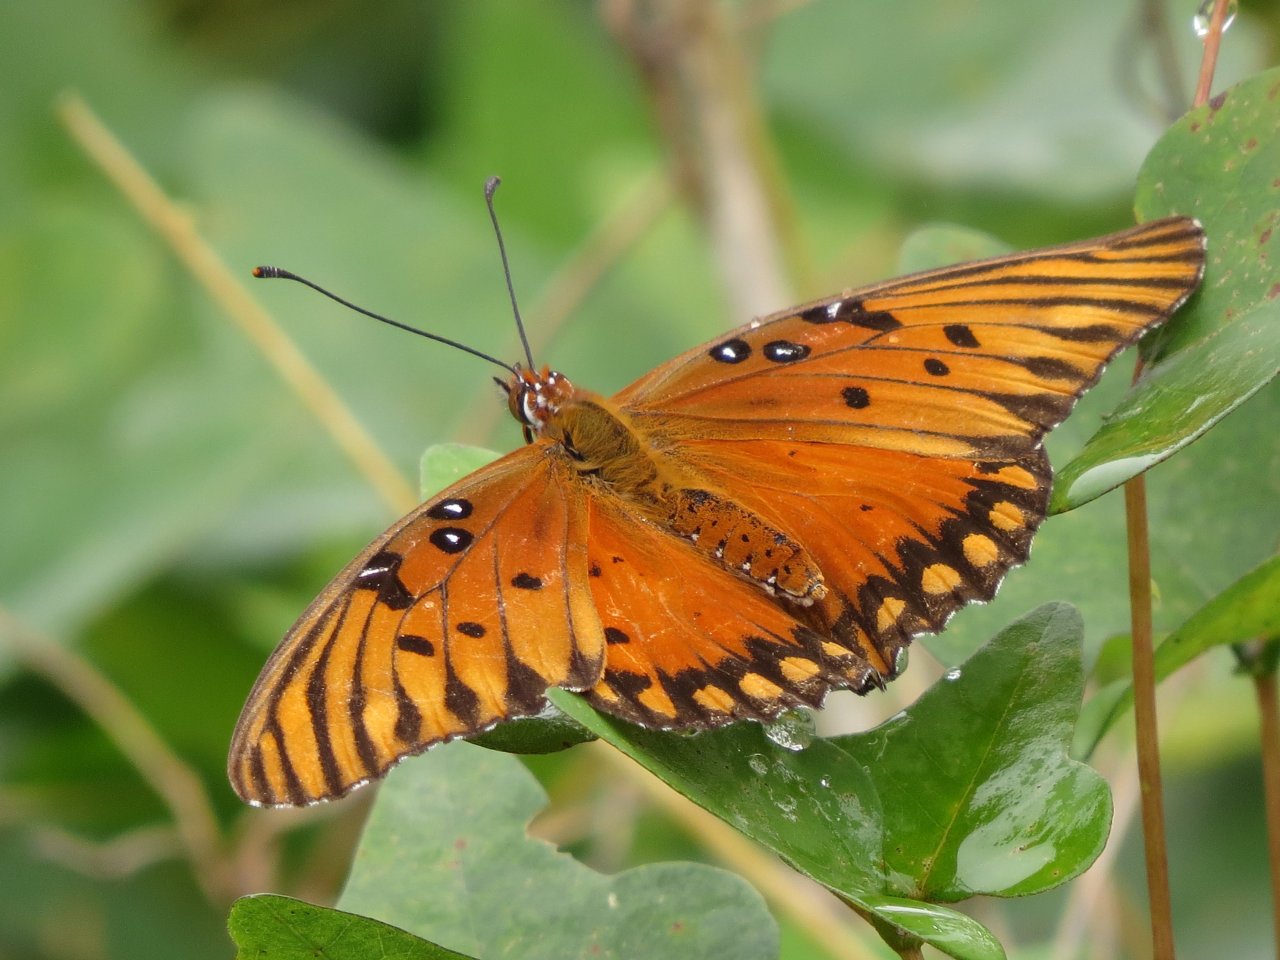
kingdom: Animalia
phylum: Arthropoda
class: Insecta
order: Lepidoptera
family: Nymphalidae
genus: Dione
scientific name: Dione vanillae
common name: Gulf Fritillary
